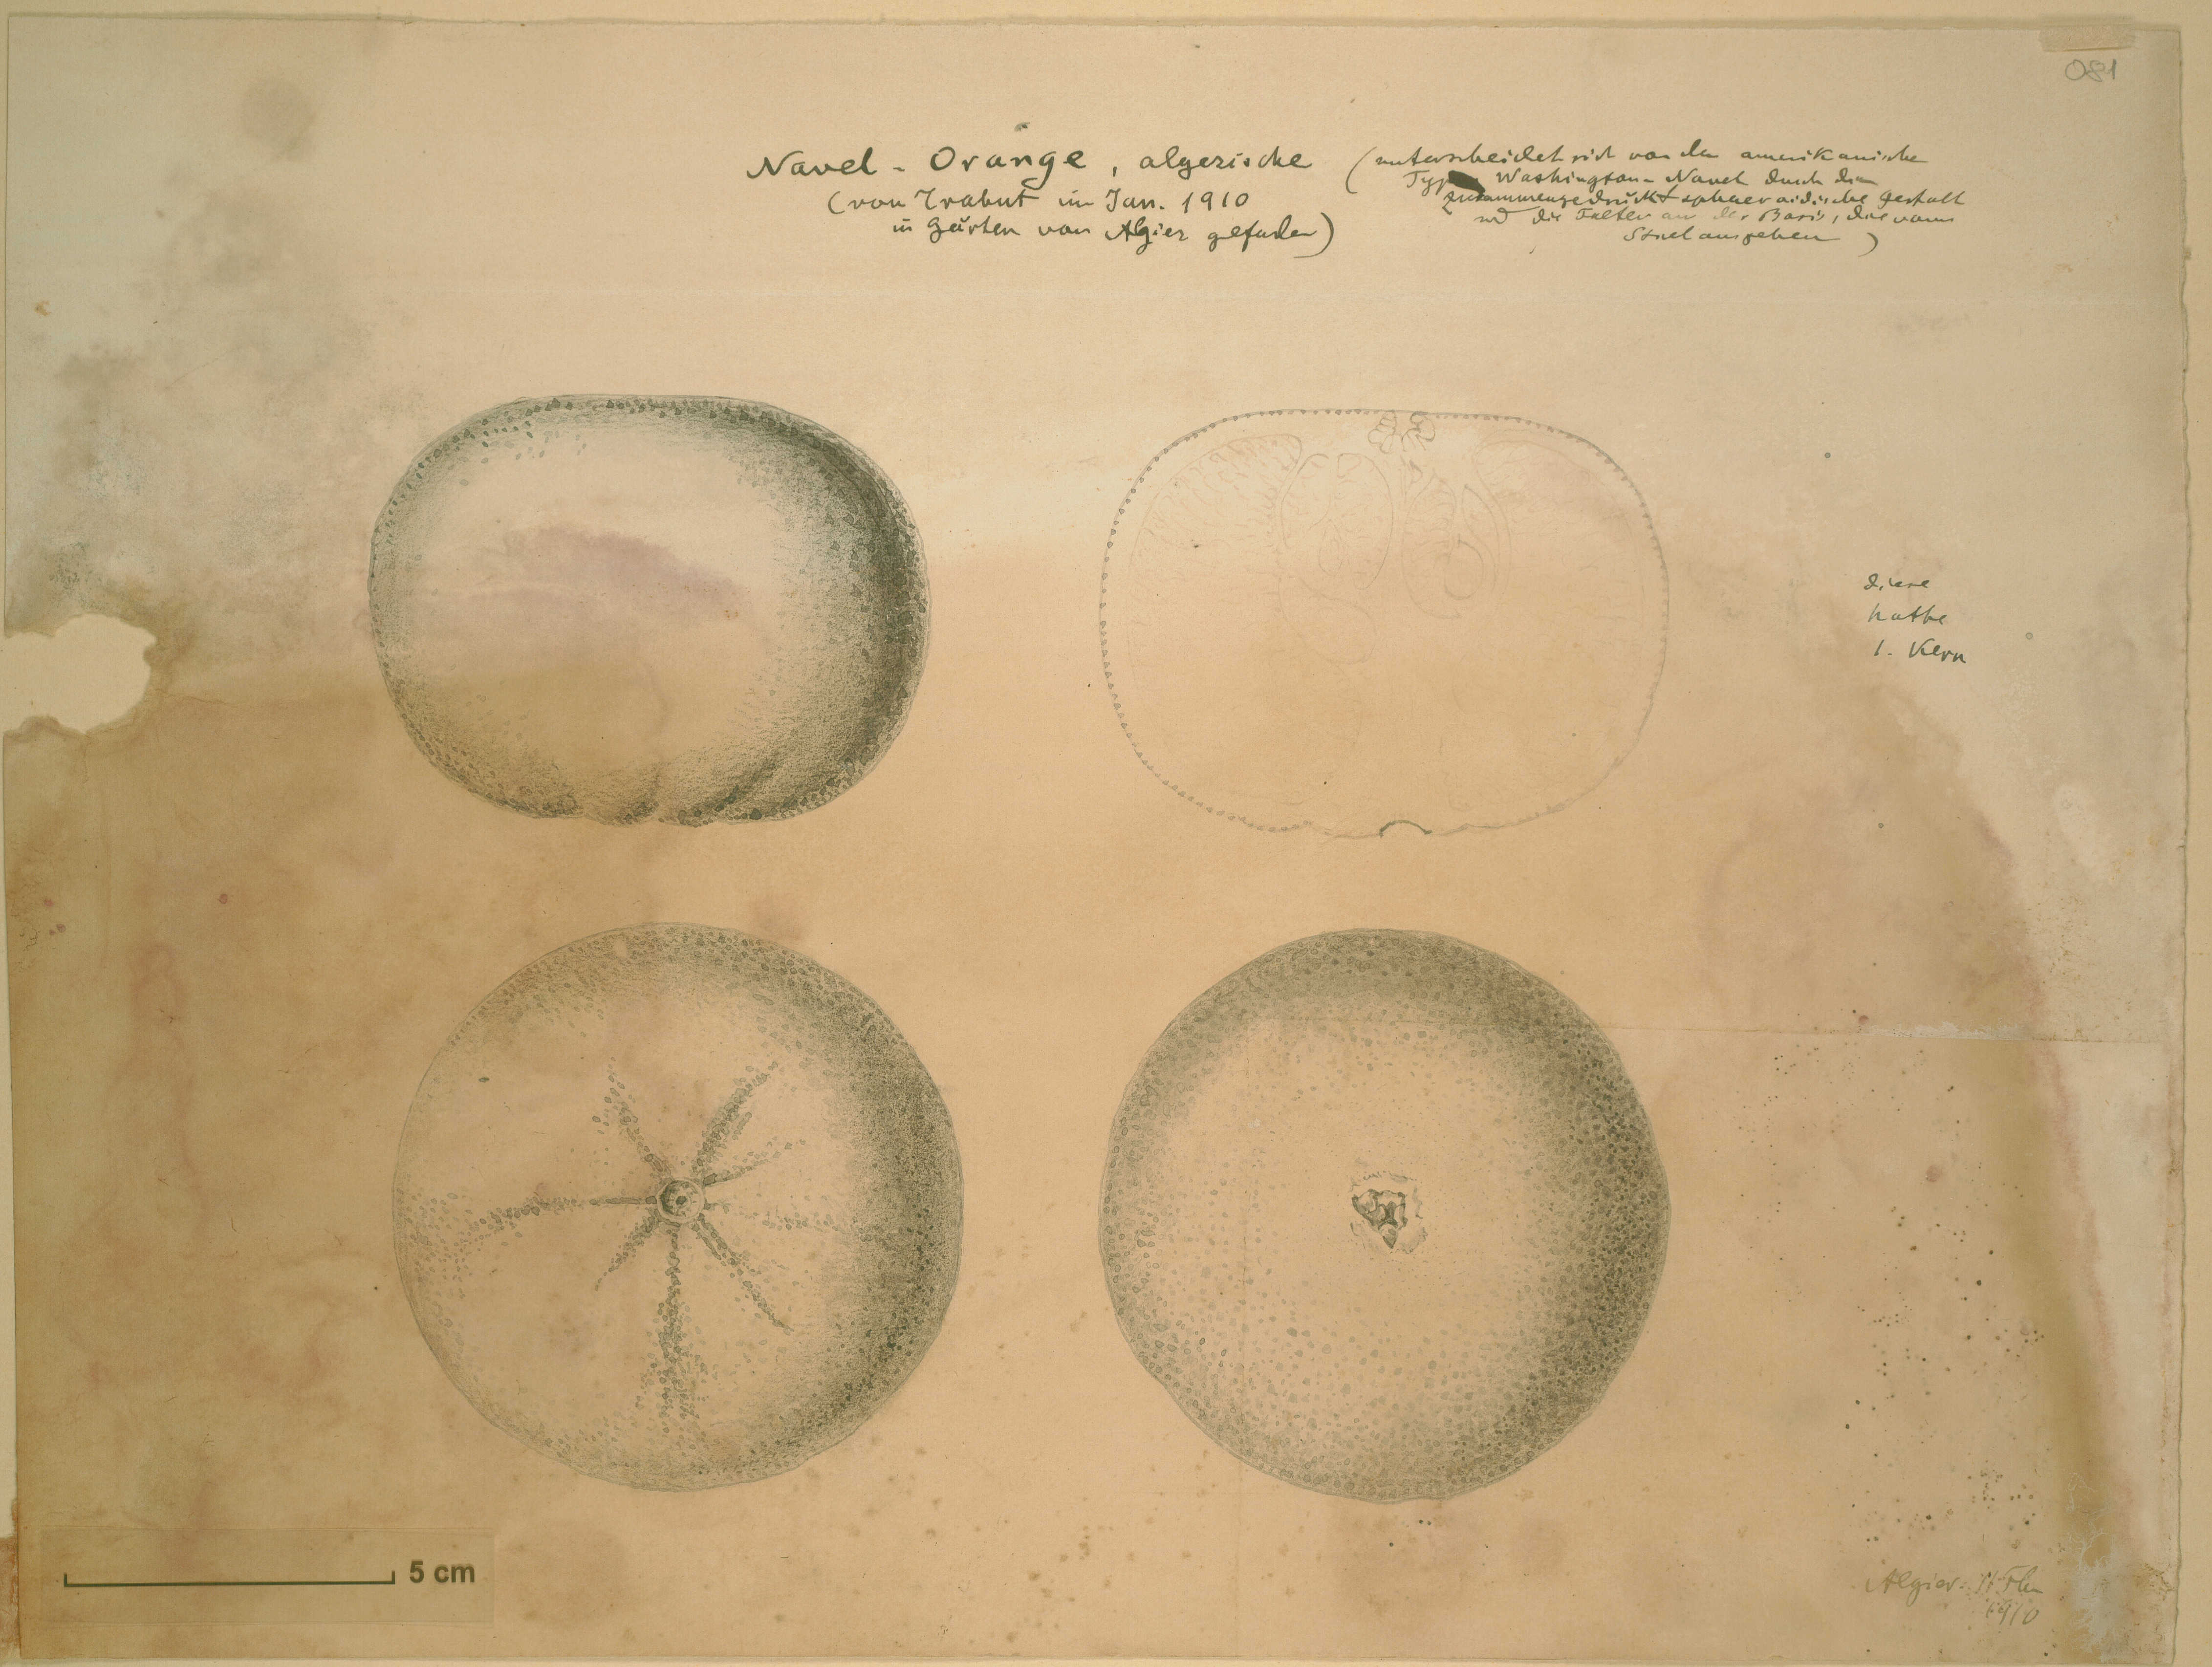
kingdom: Plantae
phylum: Tracheophyta
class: Magnoliopsida
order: Sapindales
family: Rutaceae
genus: Citrus
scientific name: Citrus aurantium
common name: Sour orange
